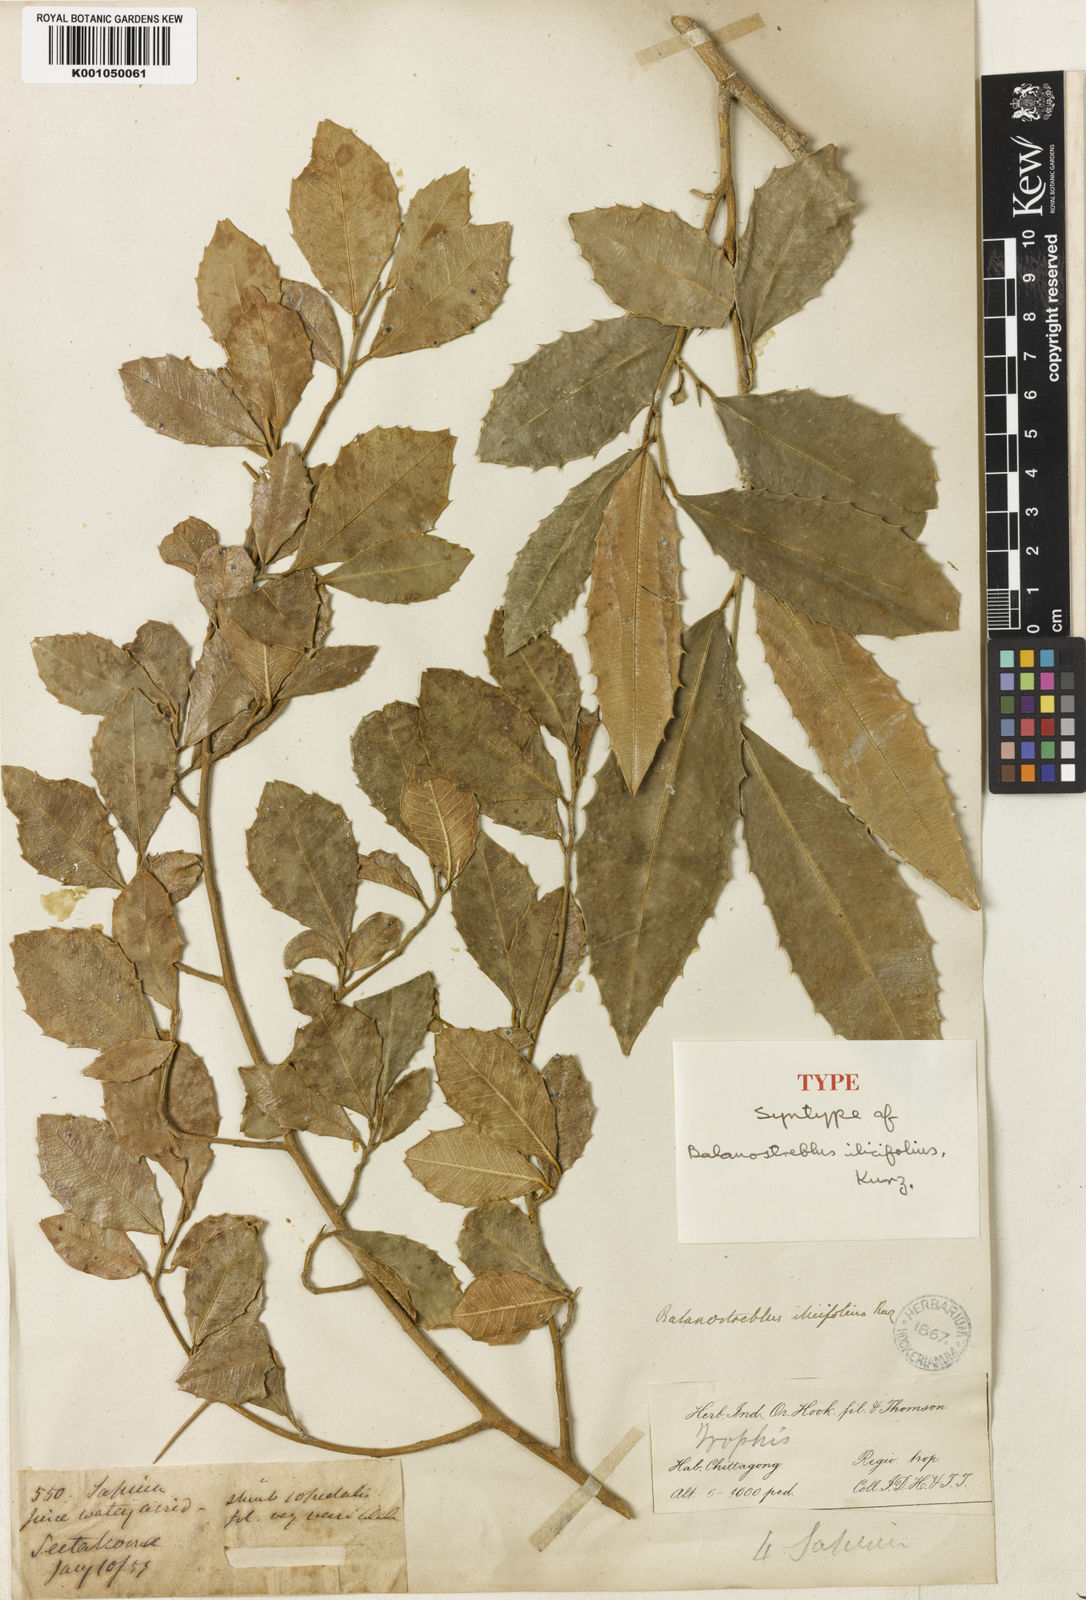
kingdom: Plantae
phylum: Tracheophyta
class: Magnoliopsida
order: Rosales
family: Moraceae
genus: Taxotrophis
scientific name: Taxotrophis ilicifolia
